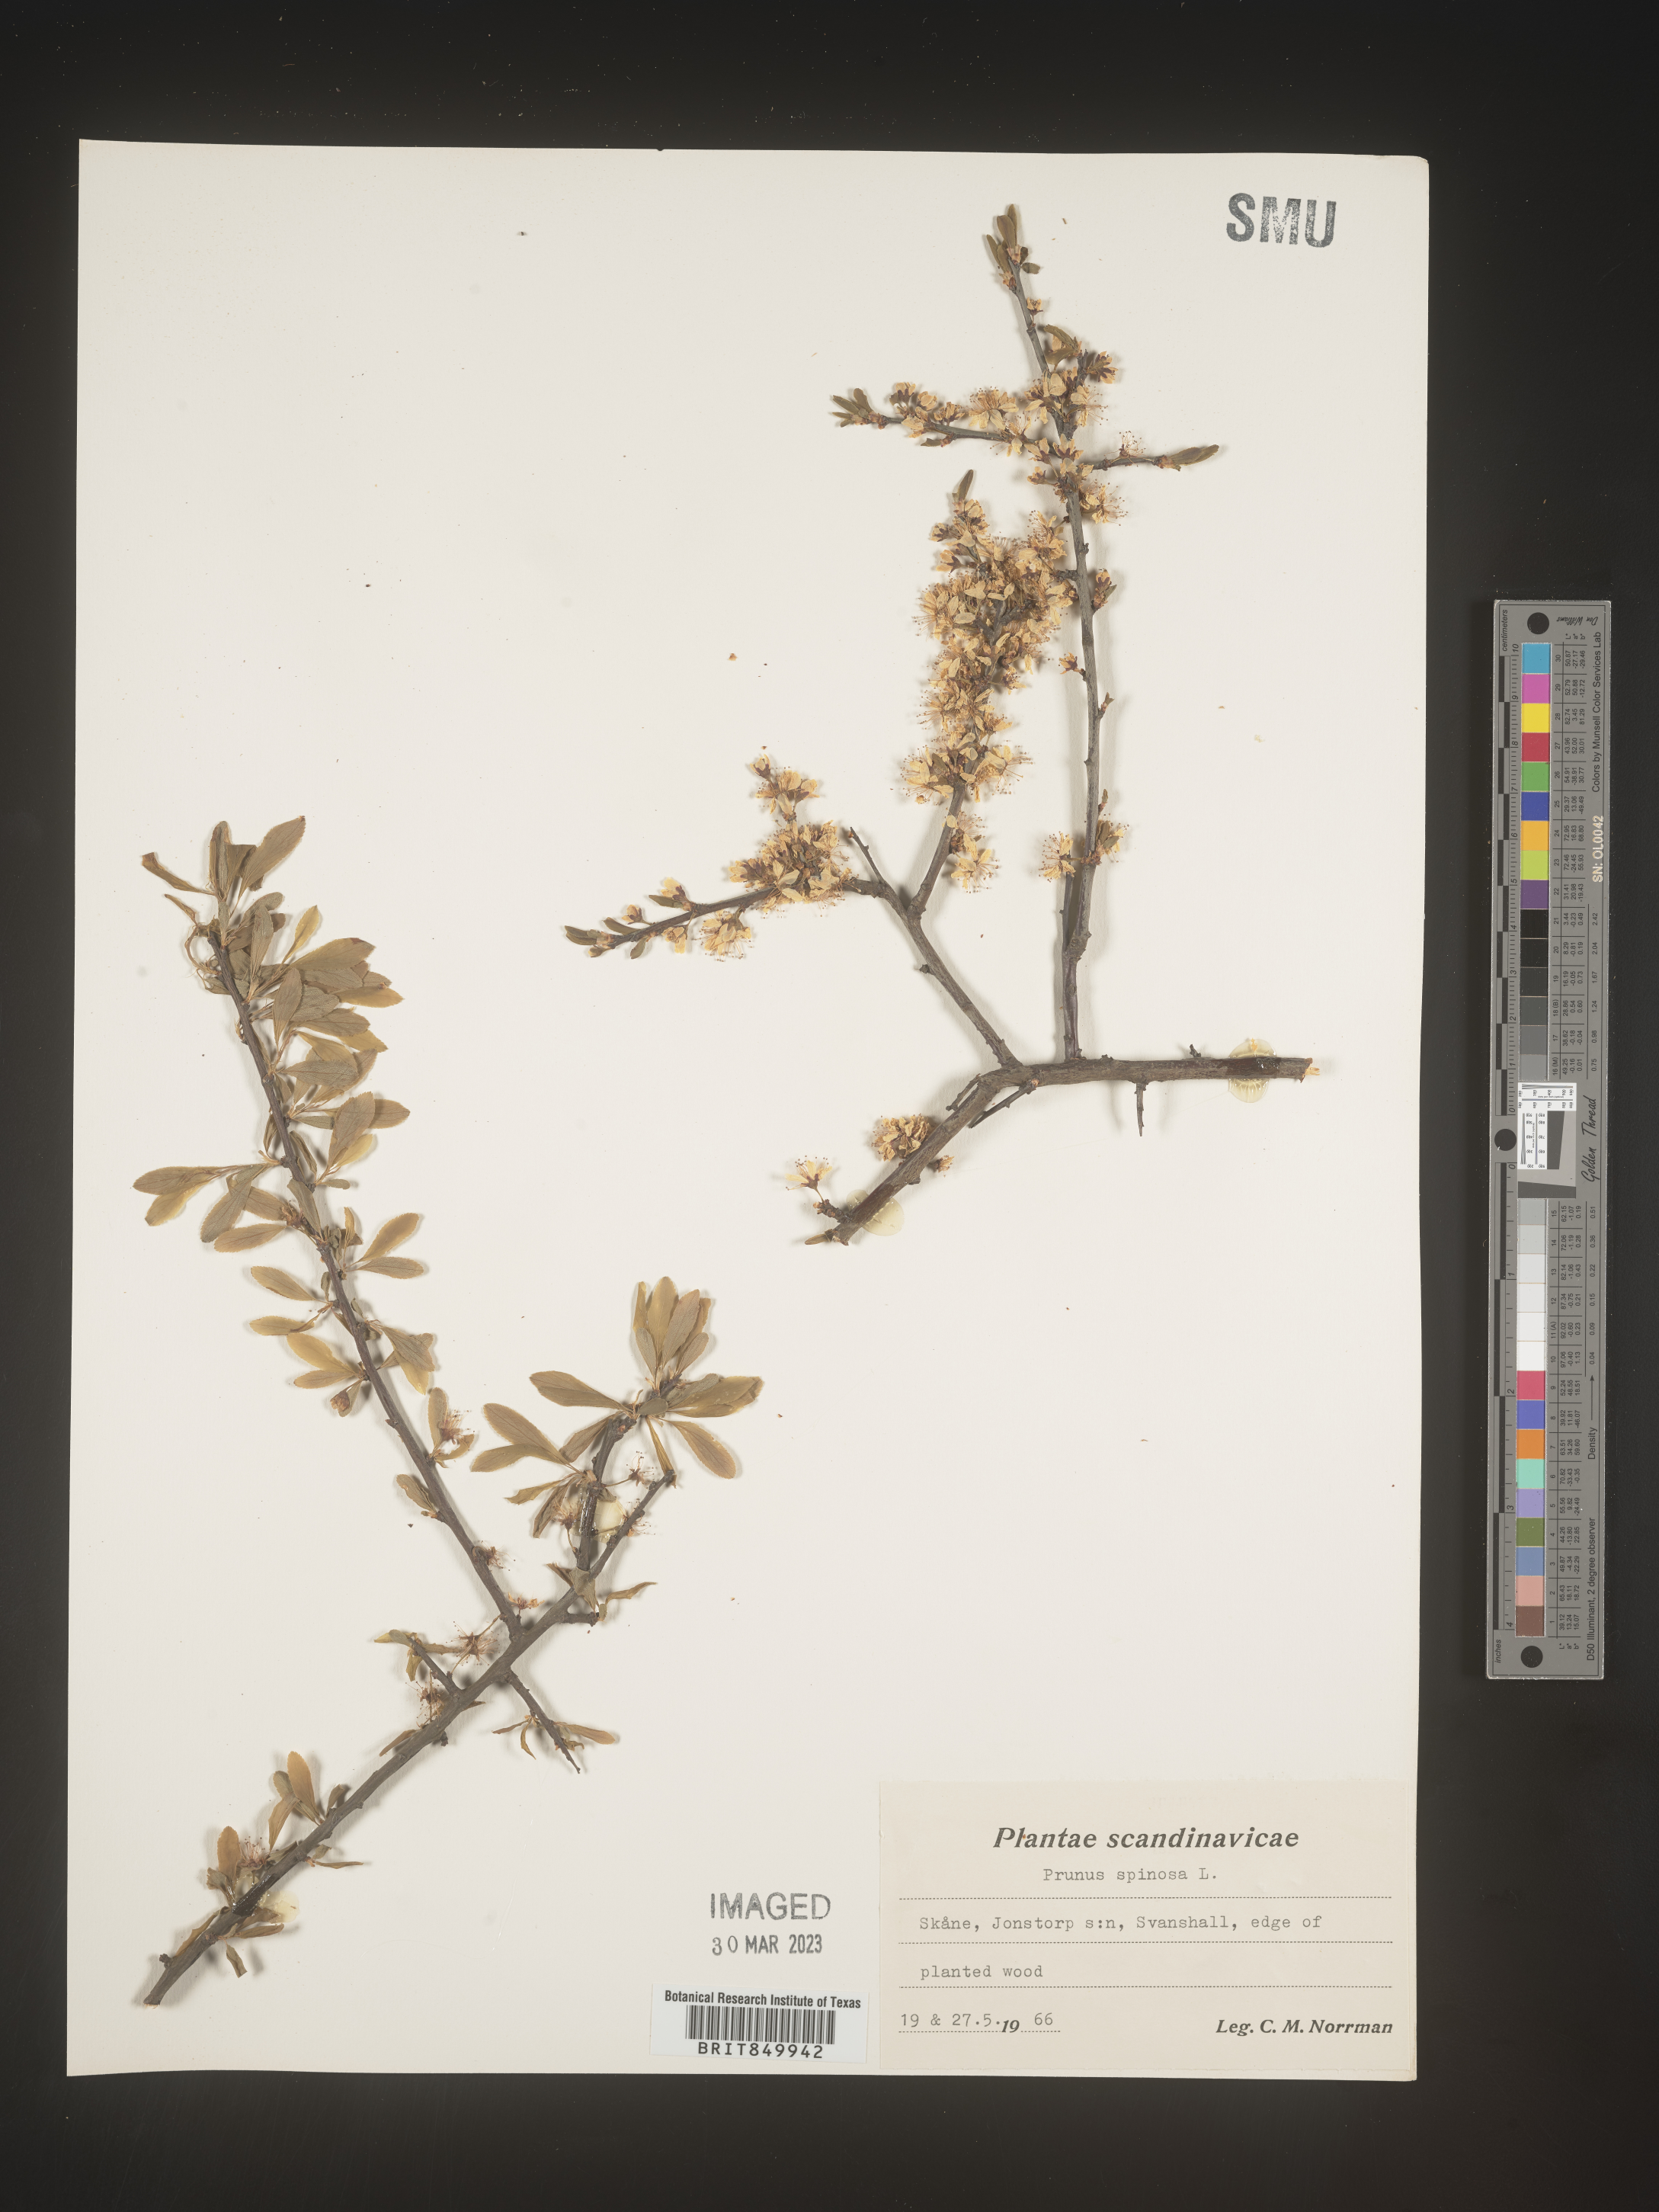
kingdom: Plantae
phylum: Tracheophyta
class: Magnoliopsida
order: Rosales
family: Rosaceae
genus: Pyrus
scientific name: Pyrus
